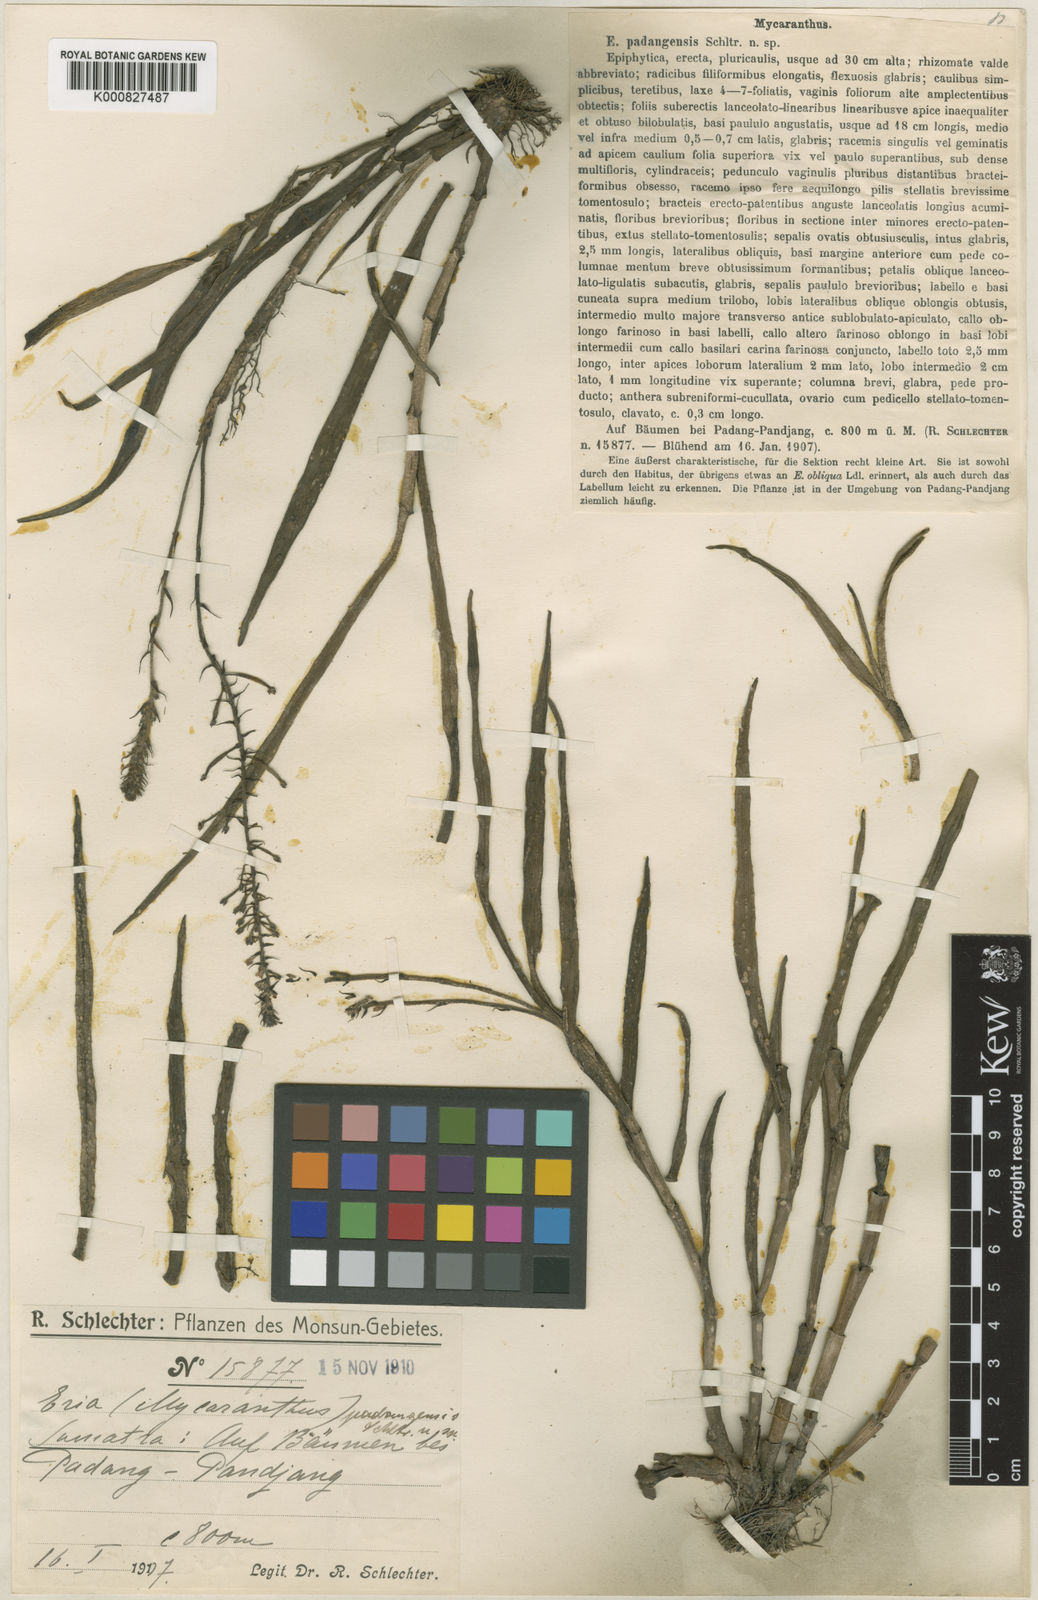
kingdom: Plantae
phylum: Tracheophyta
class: Liliopsida
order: Asparagales
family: Orchidaceae
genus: Mycaranthes
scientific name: Mycaranthes padangensis
